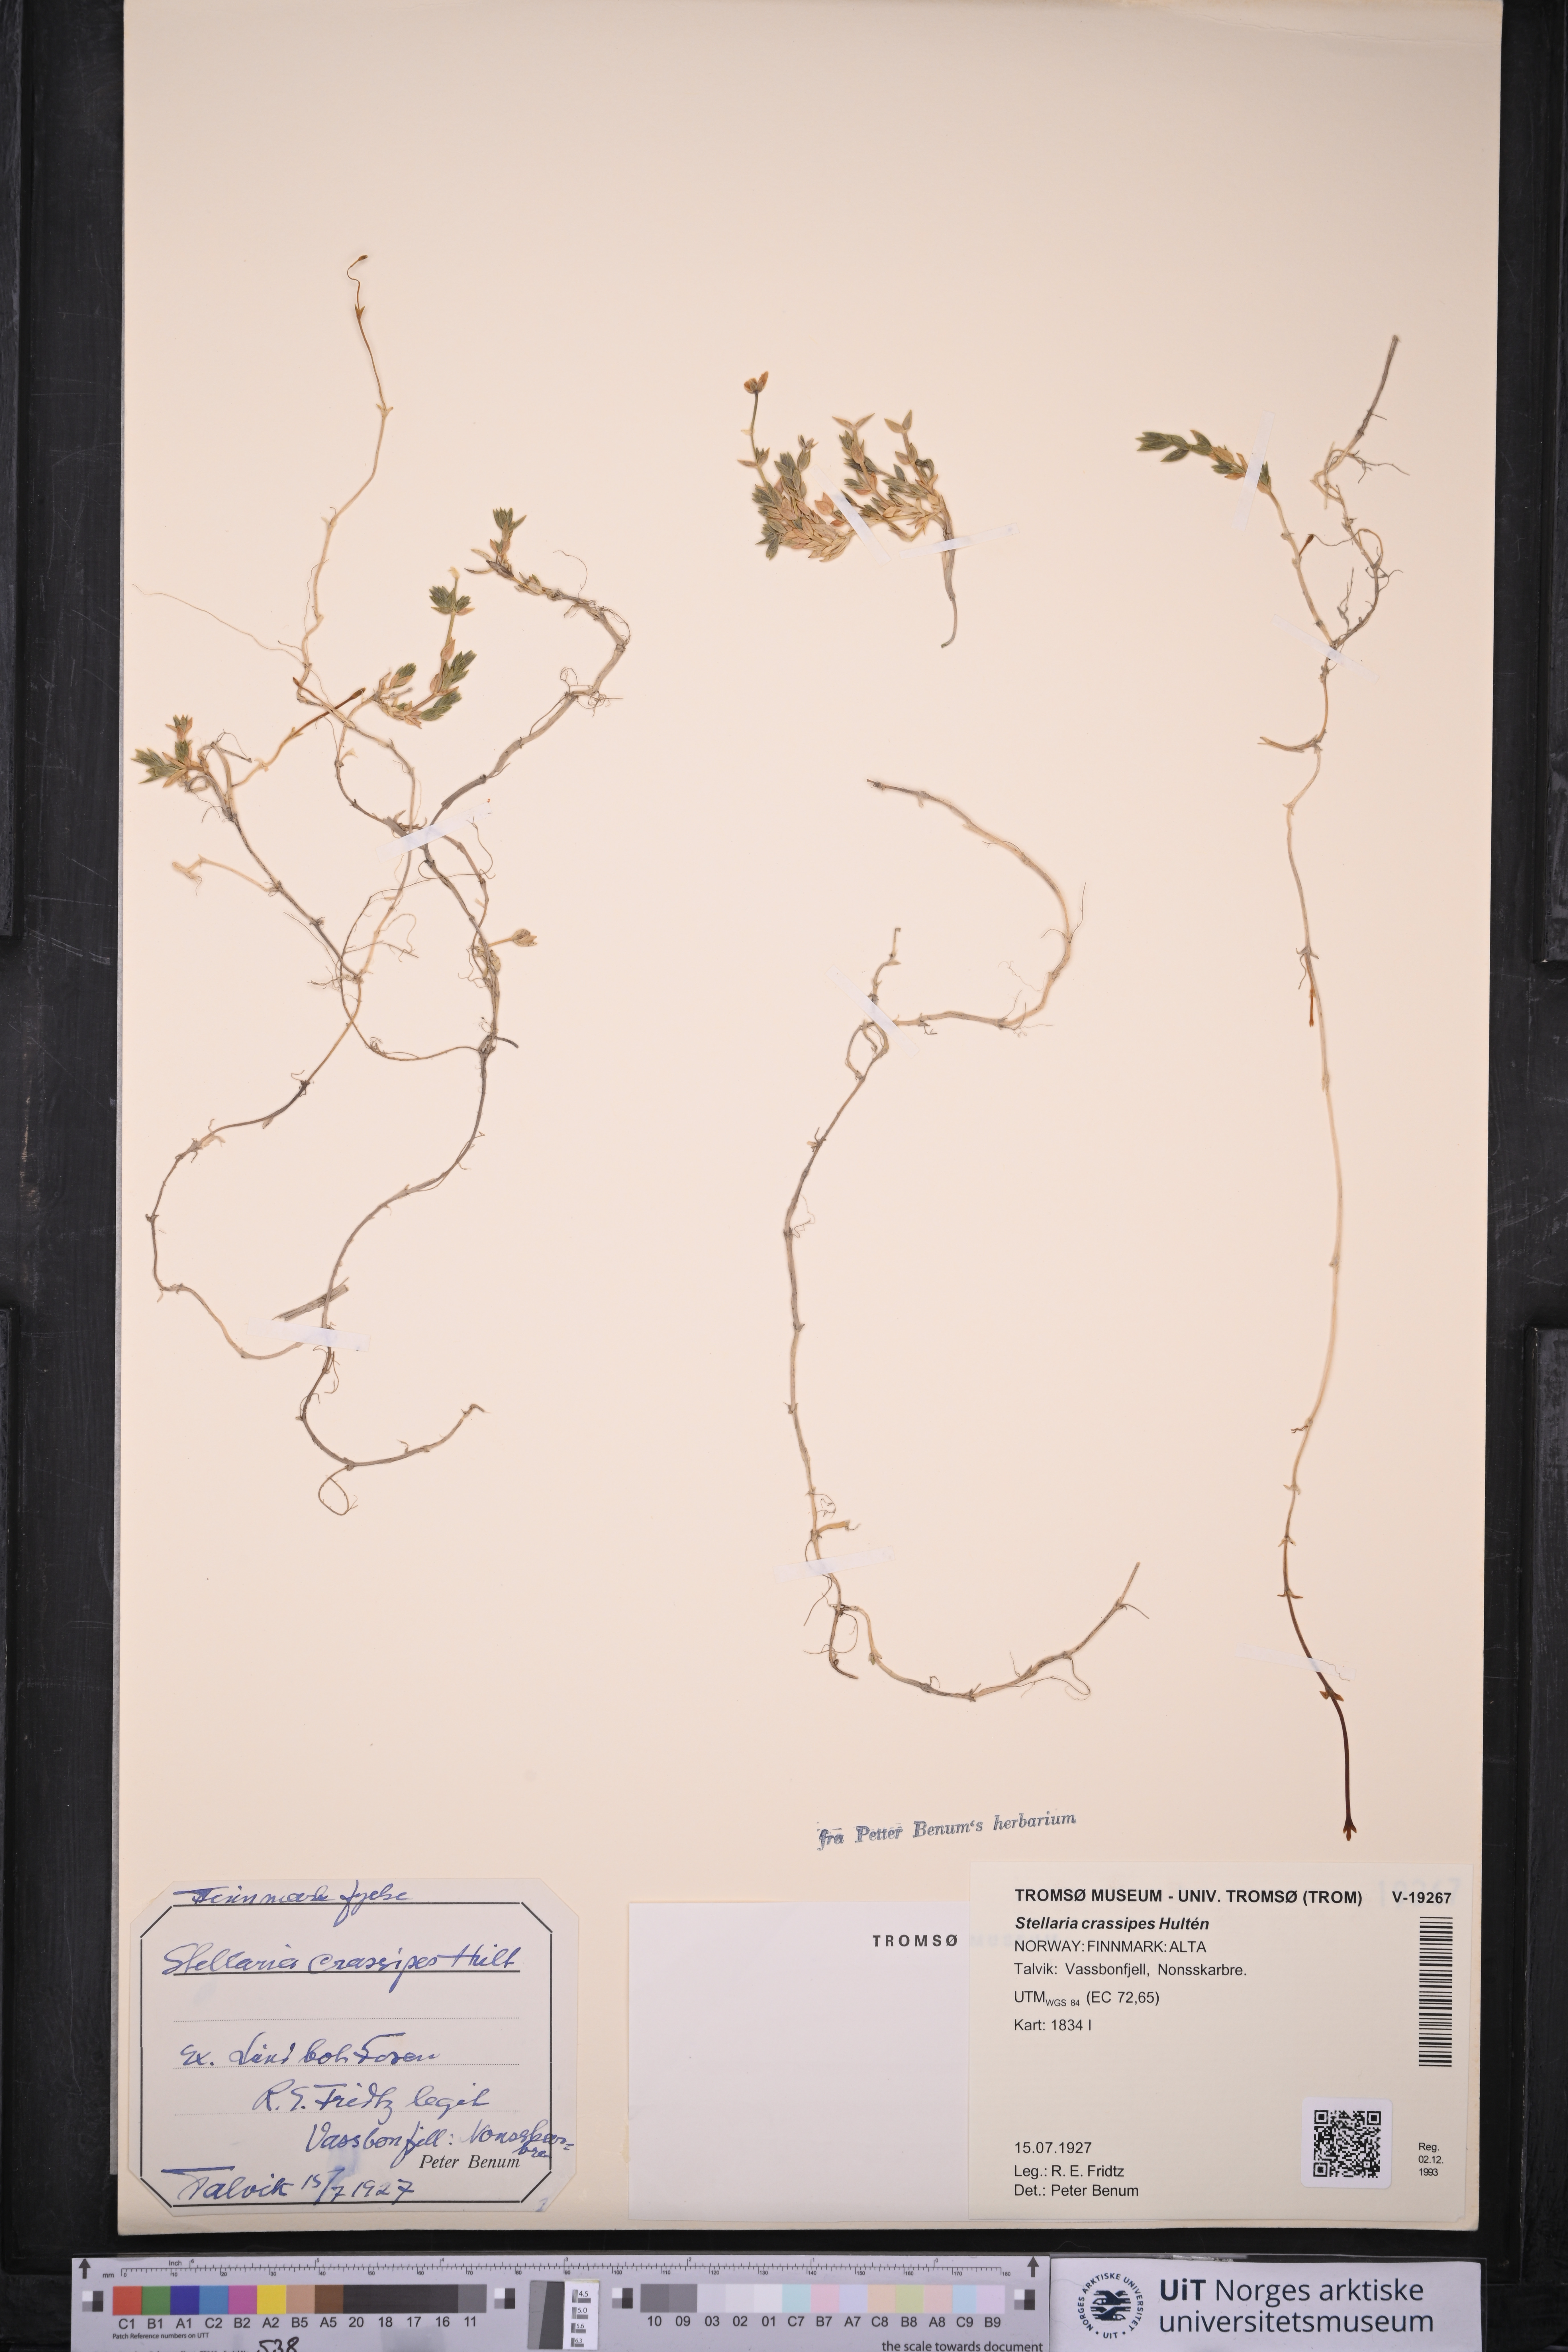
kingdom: Plantae
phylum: Tracheophyta
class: Magnoliopsida
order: Caryophyllales
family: Caryophyllaceae
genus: Stellaria
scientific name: Stellaria longipes
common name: Goldie's starwort
